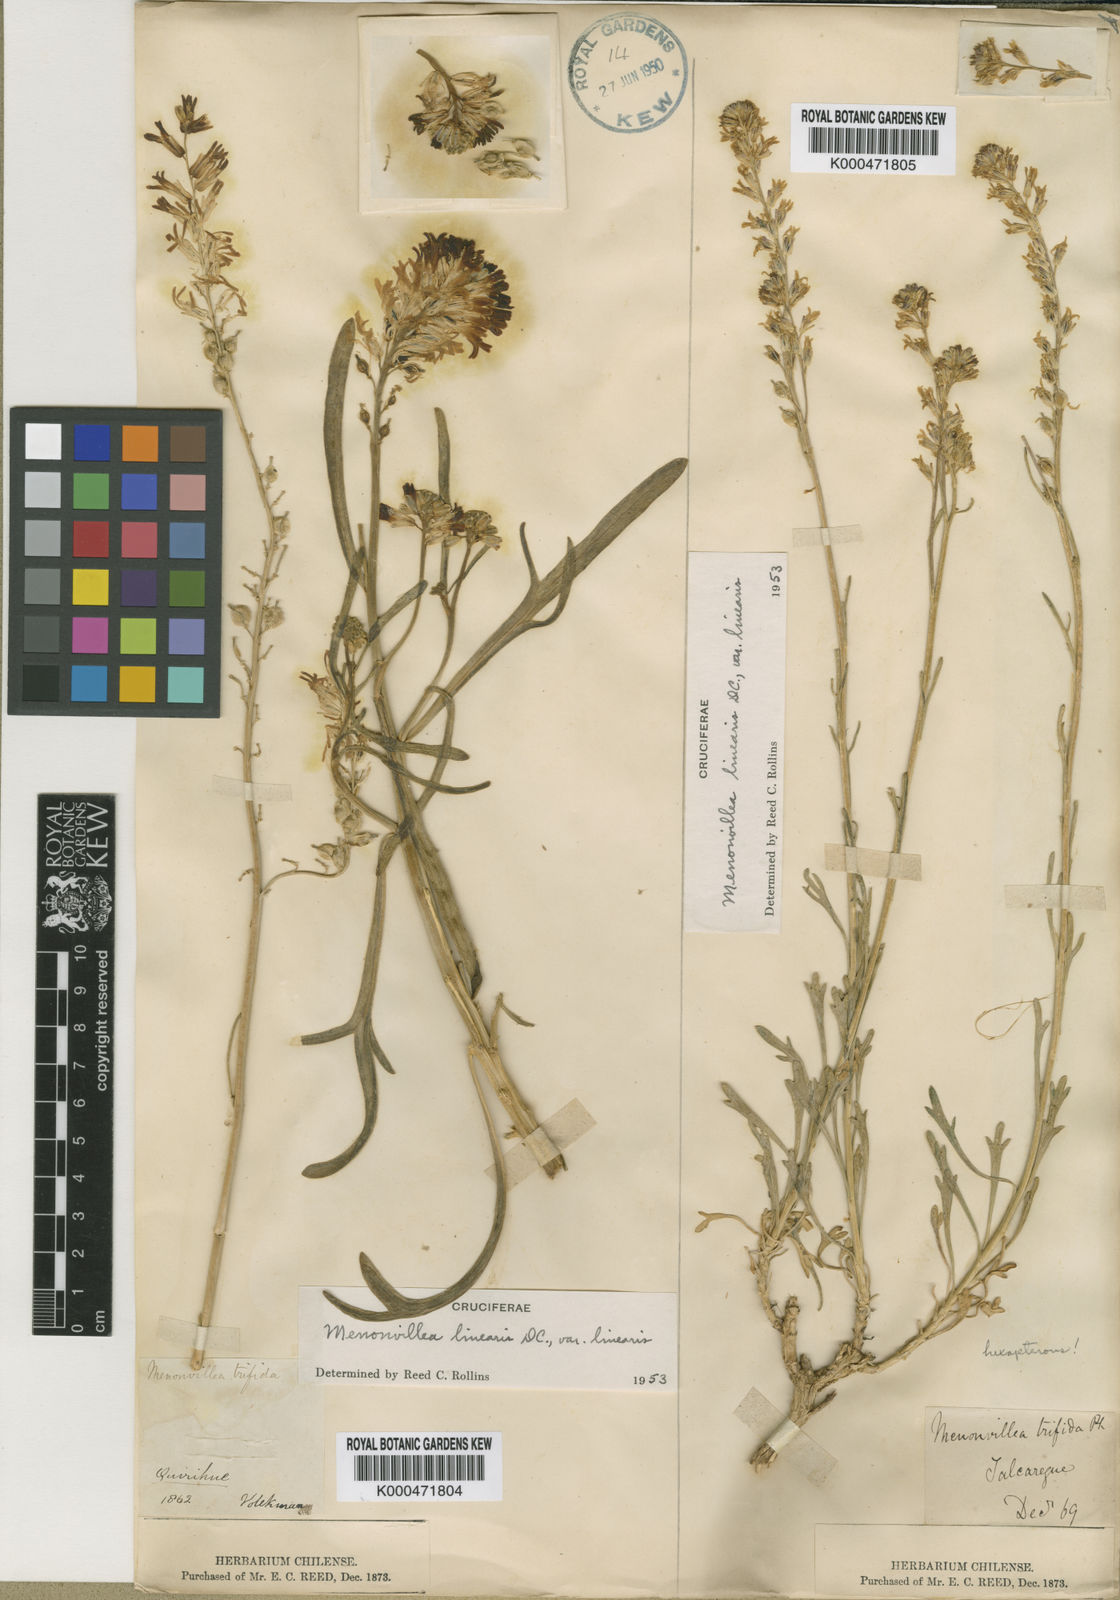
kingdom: Plantae
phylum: Tracheophyta
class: Magnoliopsida
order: Brassicales
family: Brassicaceae
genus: Menonvillea
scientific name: Menonvillea linearis
